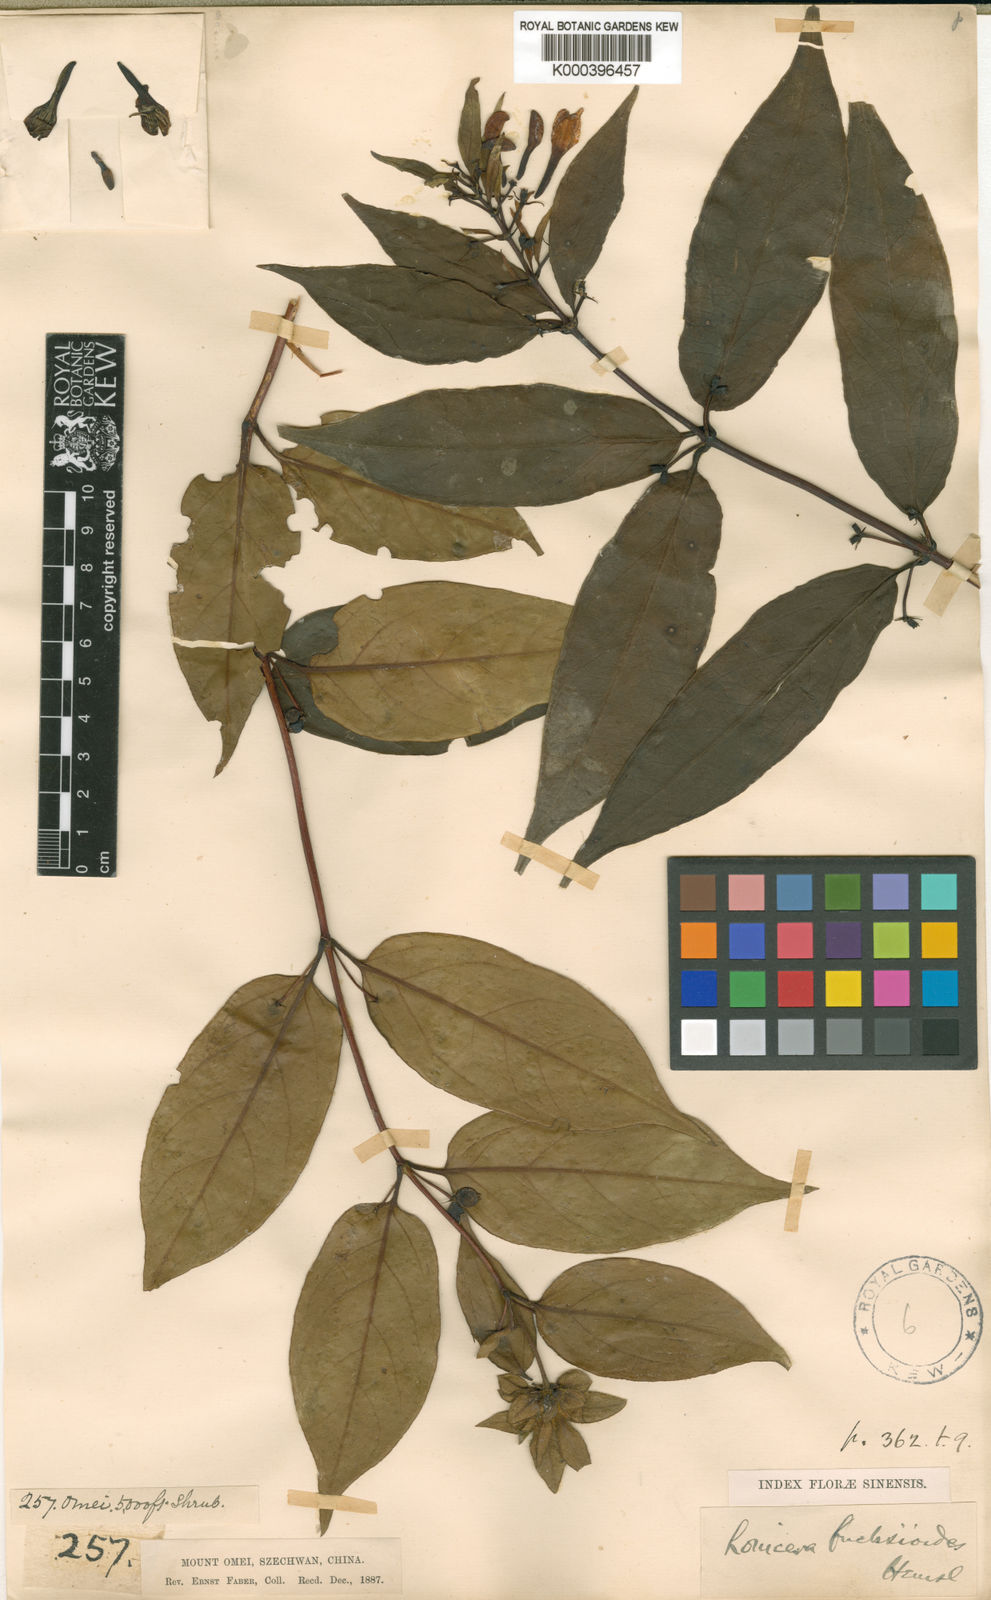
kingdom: Plantae
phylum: Tracheophyta
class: Magnoliopsida
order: Dipsacales
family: Caprifoliaceae
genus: Lonicera
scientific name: Lonicera acuminata
